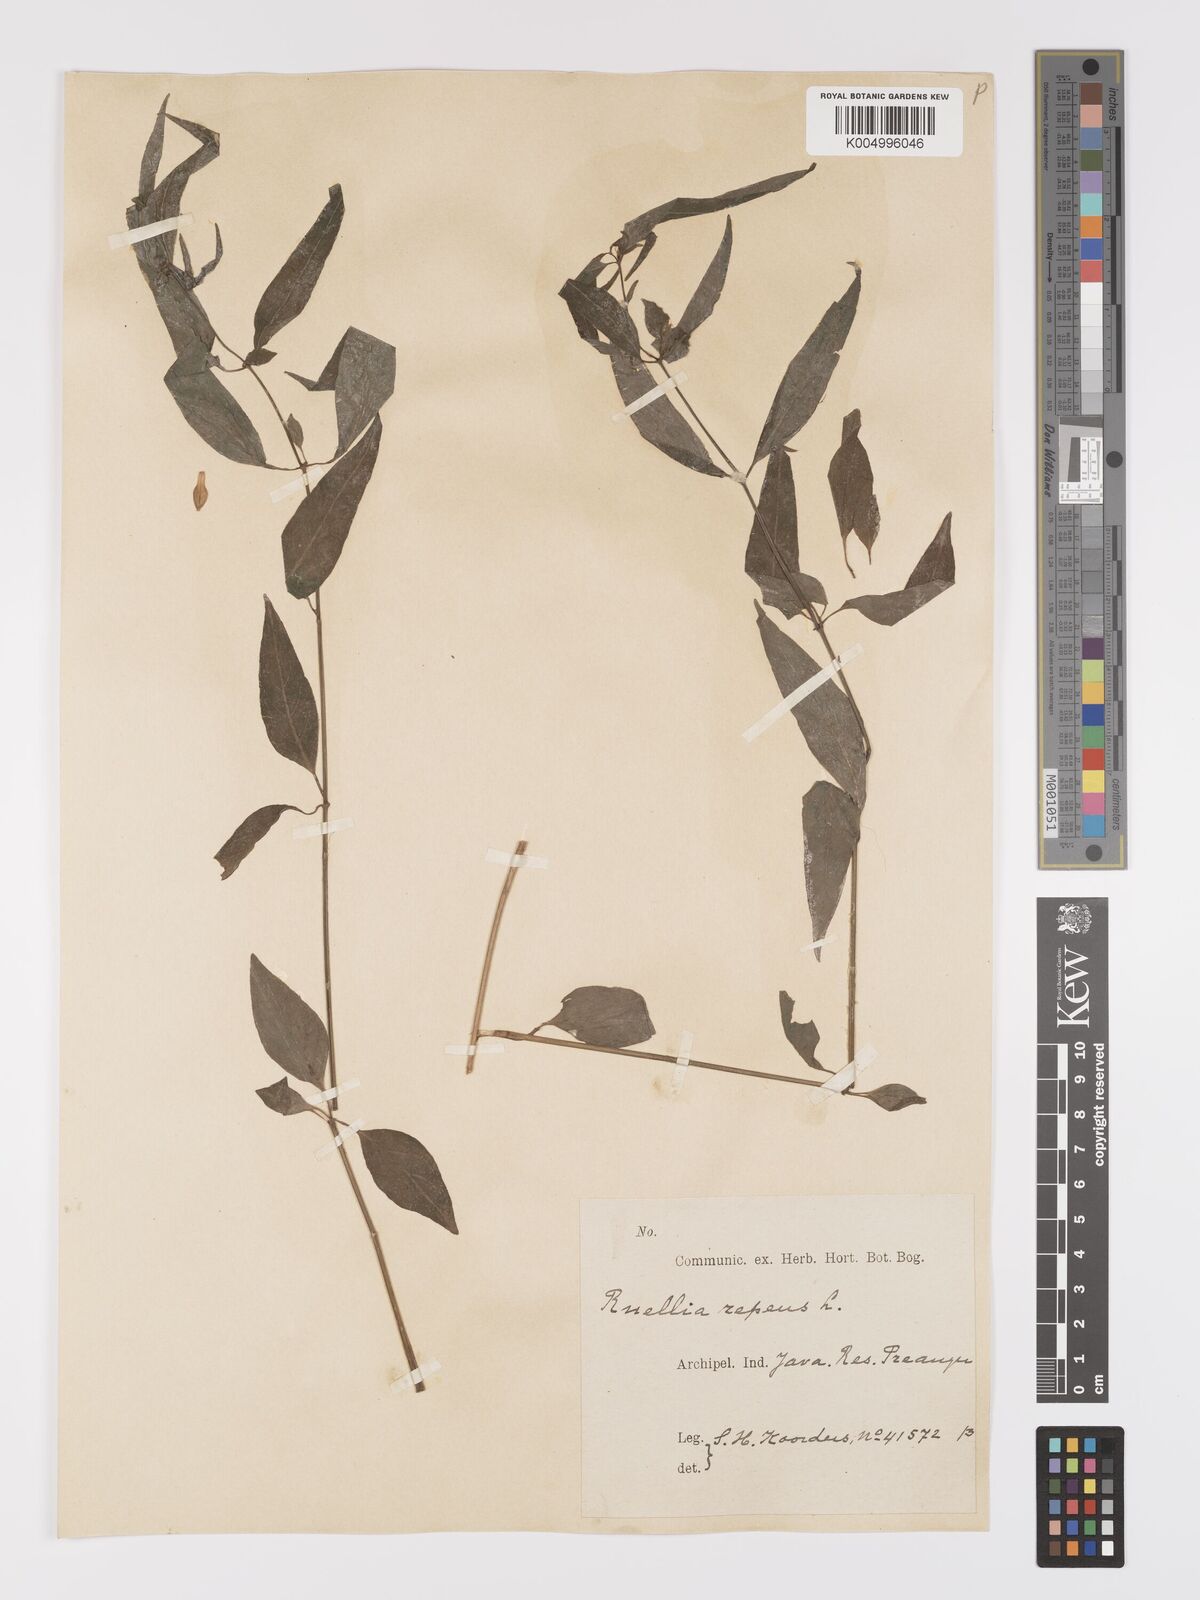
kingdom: Plantae
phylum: Tracheophyta
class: Magnoliopsida
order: Lamiales
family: Acanthaceae
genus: Ruellia
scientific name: Ruellia
